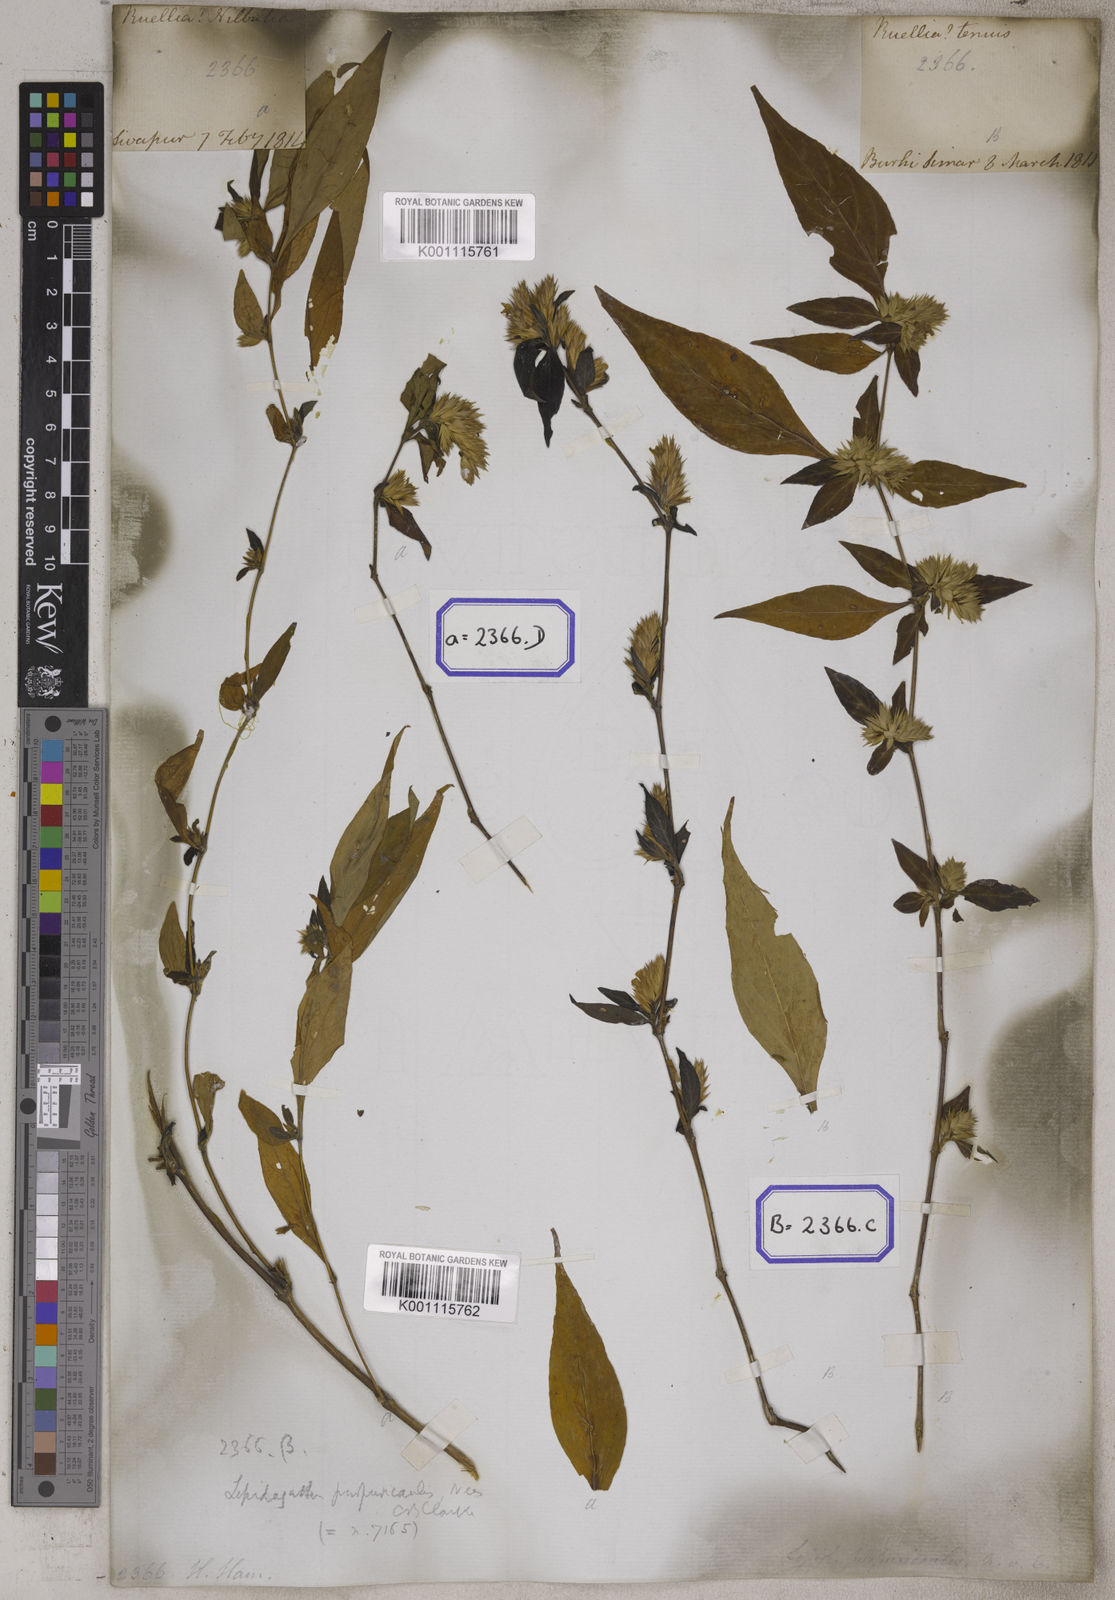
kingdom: Plantae
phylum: Tracheophyta
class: Magnoliopsida
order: Lamiales
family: Acanthaceae
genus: Lepidagathis
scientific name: Lepidagathis purpuricaulis
